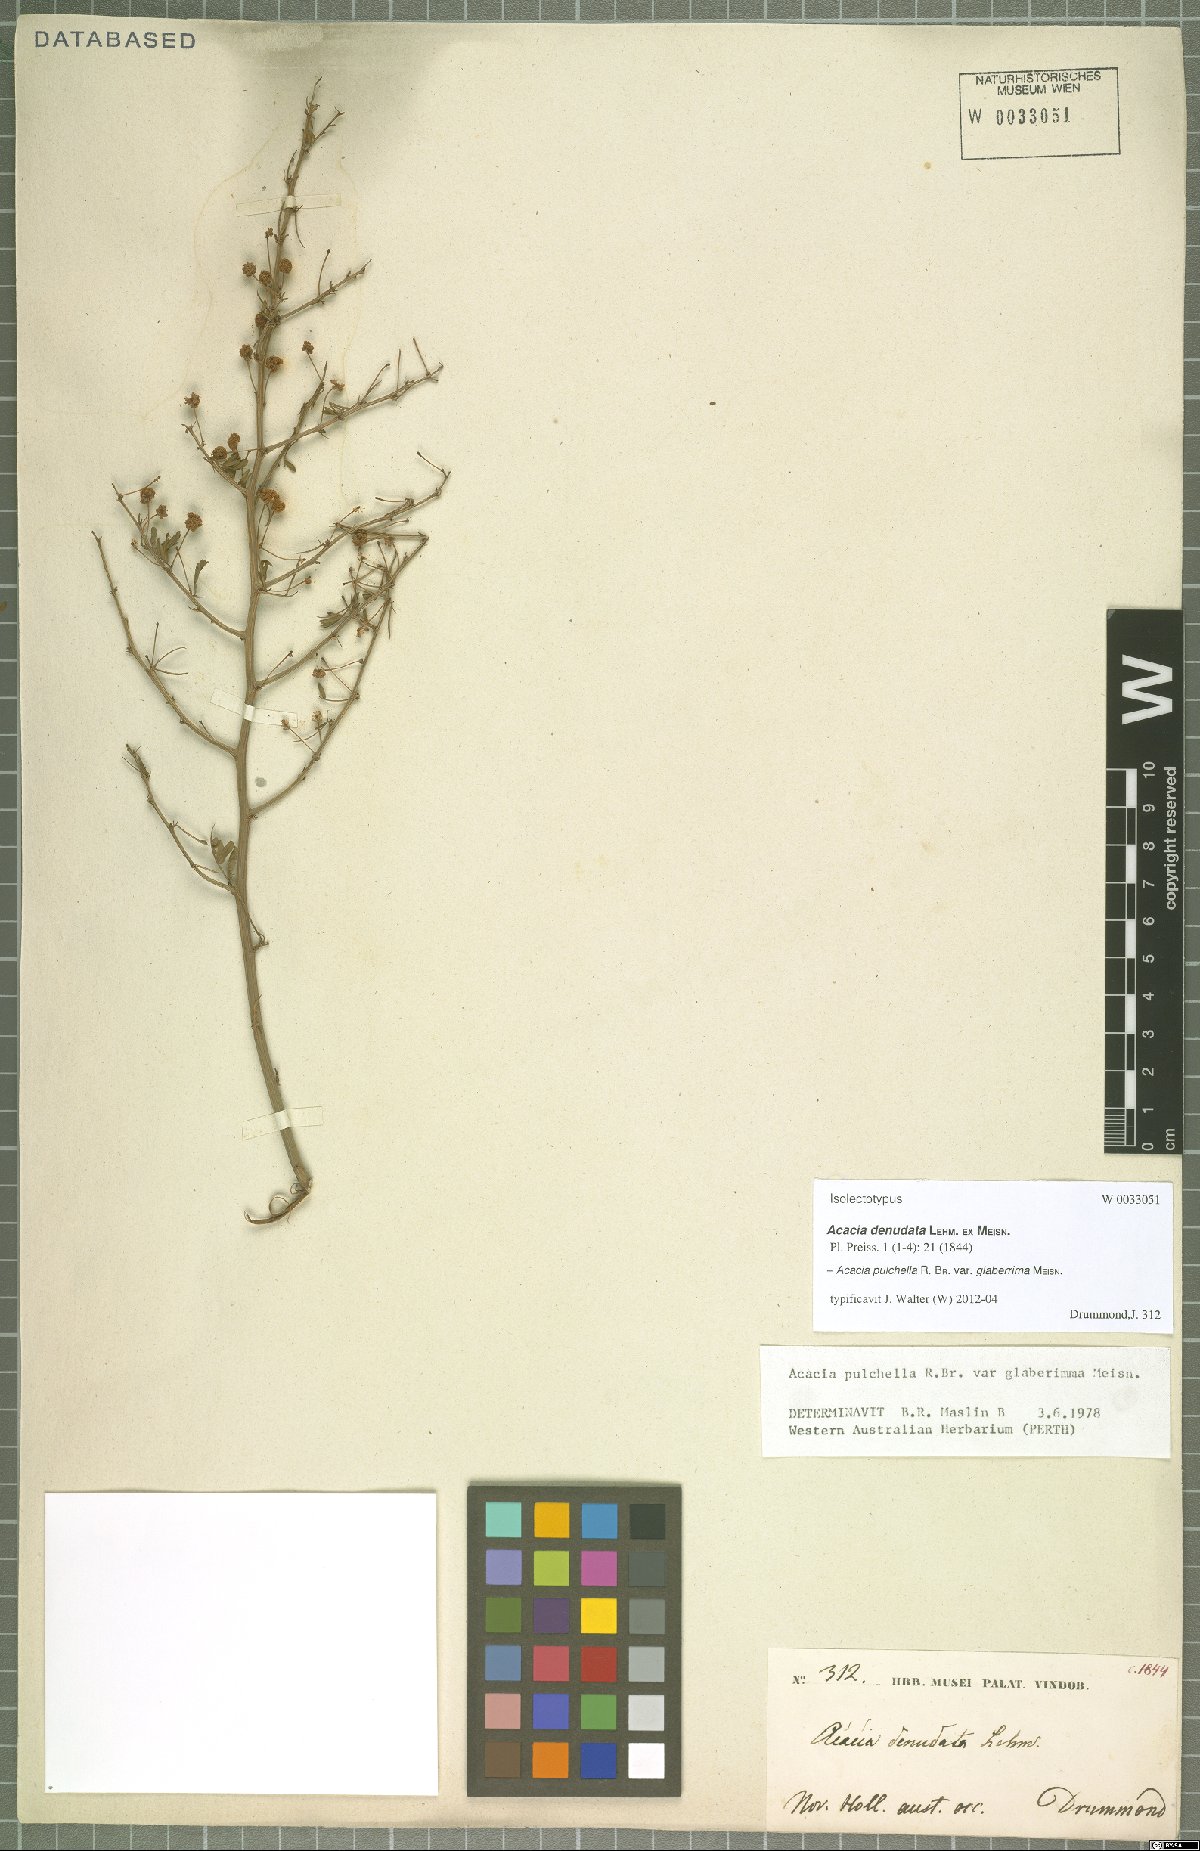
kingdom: Plantae
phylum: Tracheophyta
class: Magnoliopsida
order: Fabales
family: Fabaceae
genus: Acacia
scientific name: Acacia pulchella
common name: Prickly moses
